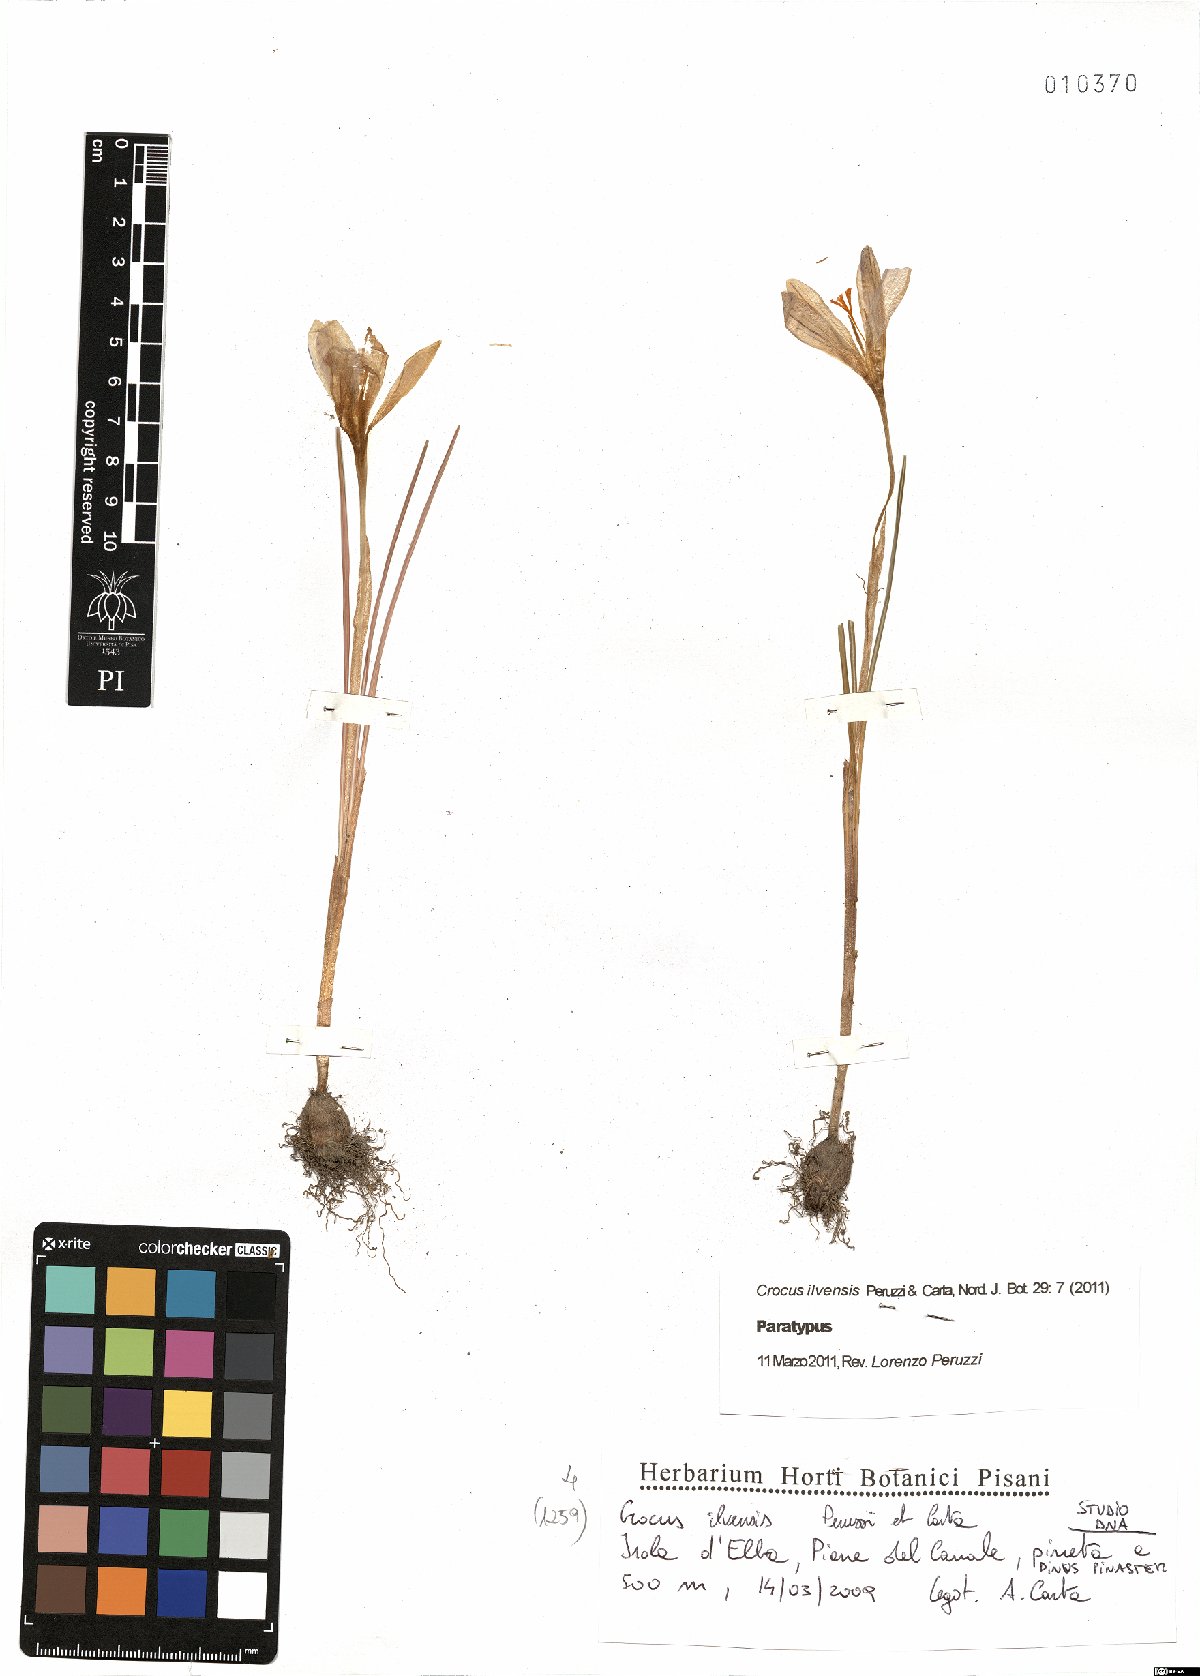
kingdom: Plantae
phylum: Tracheophyta
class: Liliopsida
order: Asparagales
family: Iridaceae
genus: Crocus
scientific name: Crocus ilvensis
